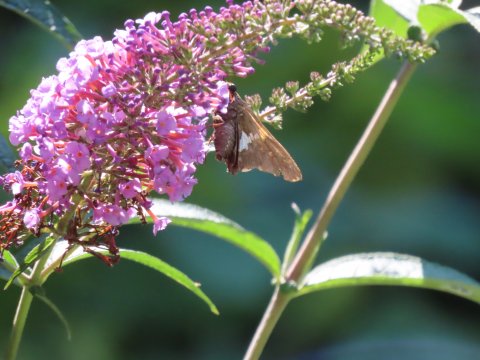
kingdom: Animalia
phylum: Arthropoda
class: Insecta
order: Lepidoptera
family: Hesperiidae
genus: Epargyreus
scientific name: Epargyreus clarus
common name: Silver-spotted Skipper
